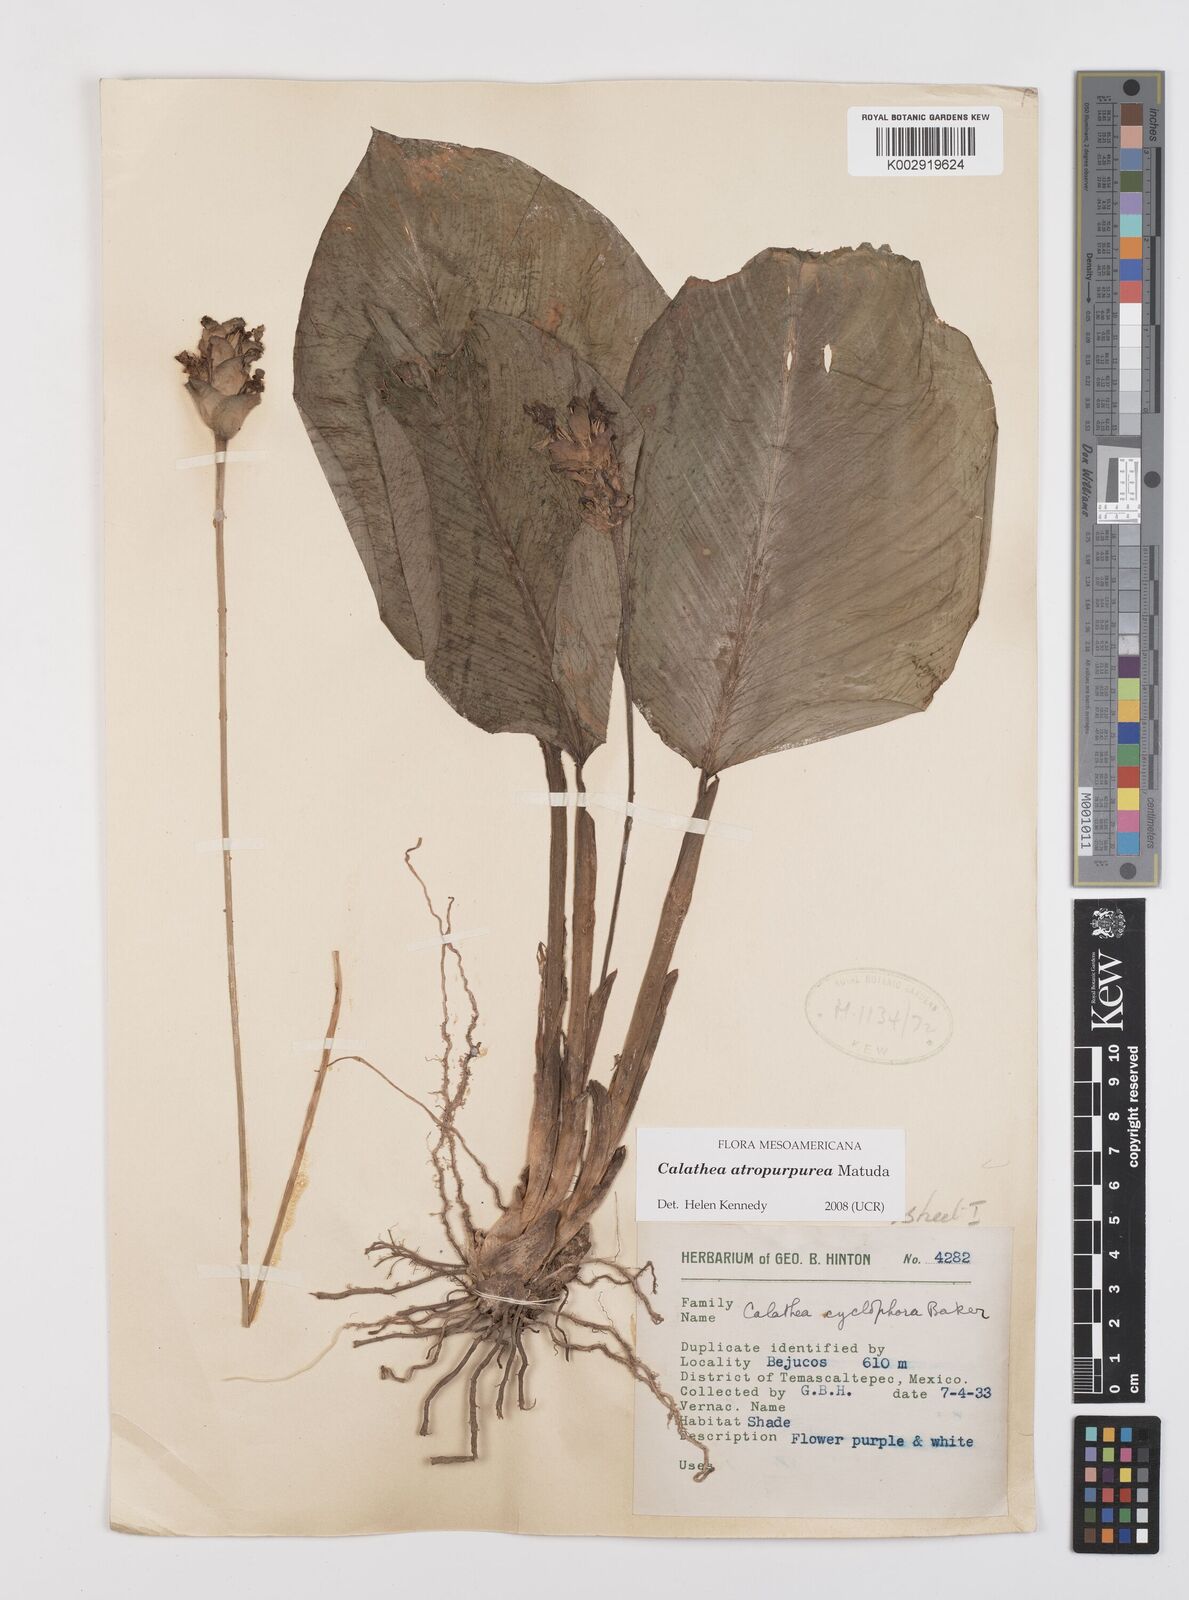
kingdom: Plantae
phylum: Tracheophyta
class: Liliopsida
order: Zingiberales
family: Marantaceae
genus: Goeppertia
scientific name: Goeppertia atropurpurea
